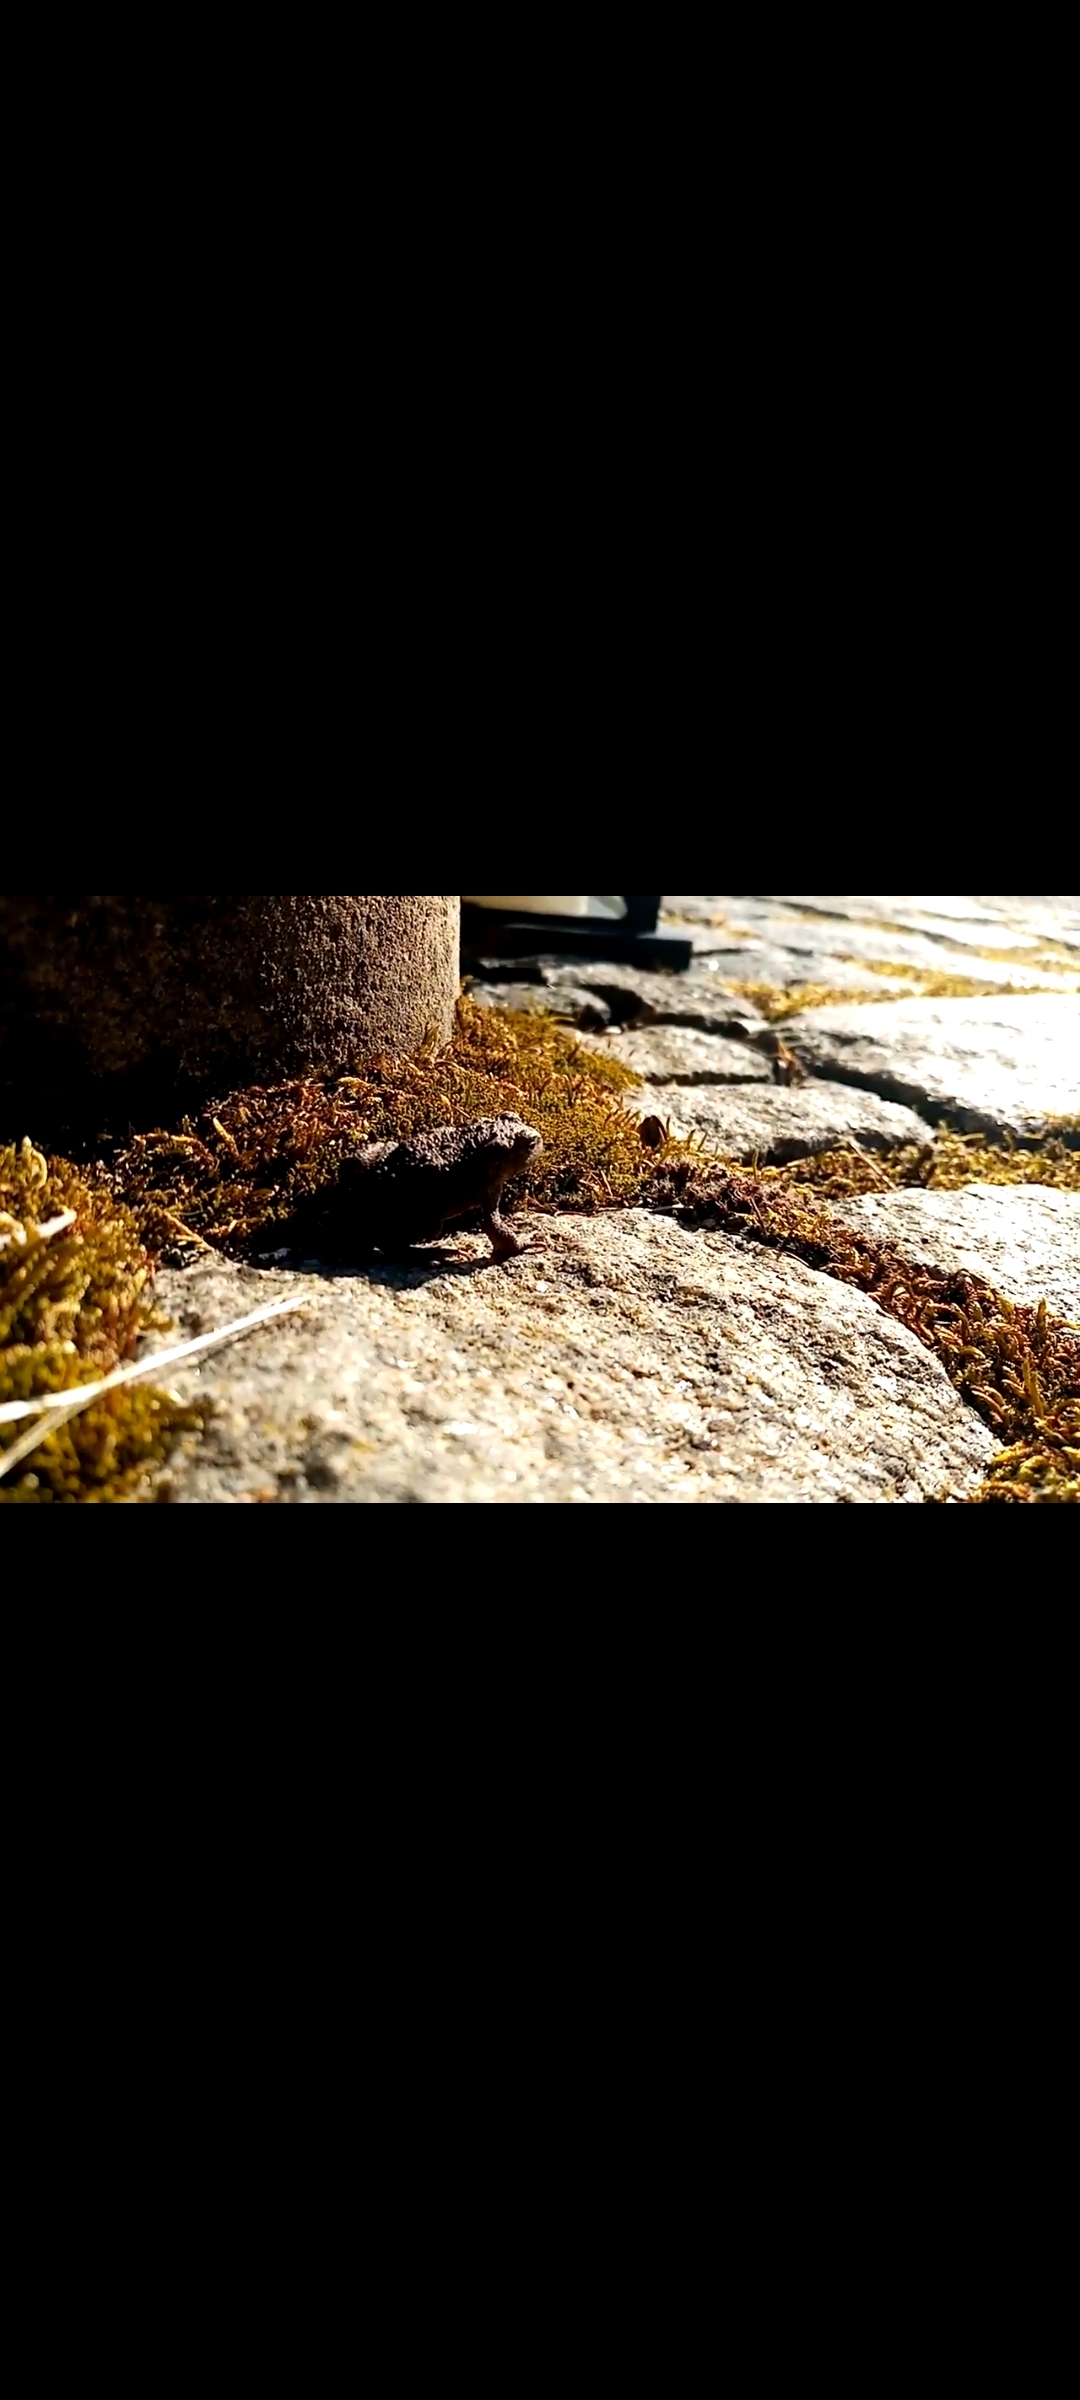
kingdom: Animalia
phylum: Chordata
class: Amphibia
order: Anura
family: Bufonidae
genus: Bufo
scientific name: Bufo bufo
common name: Skrubtudse
